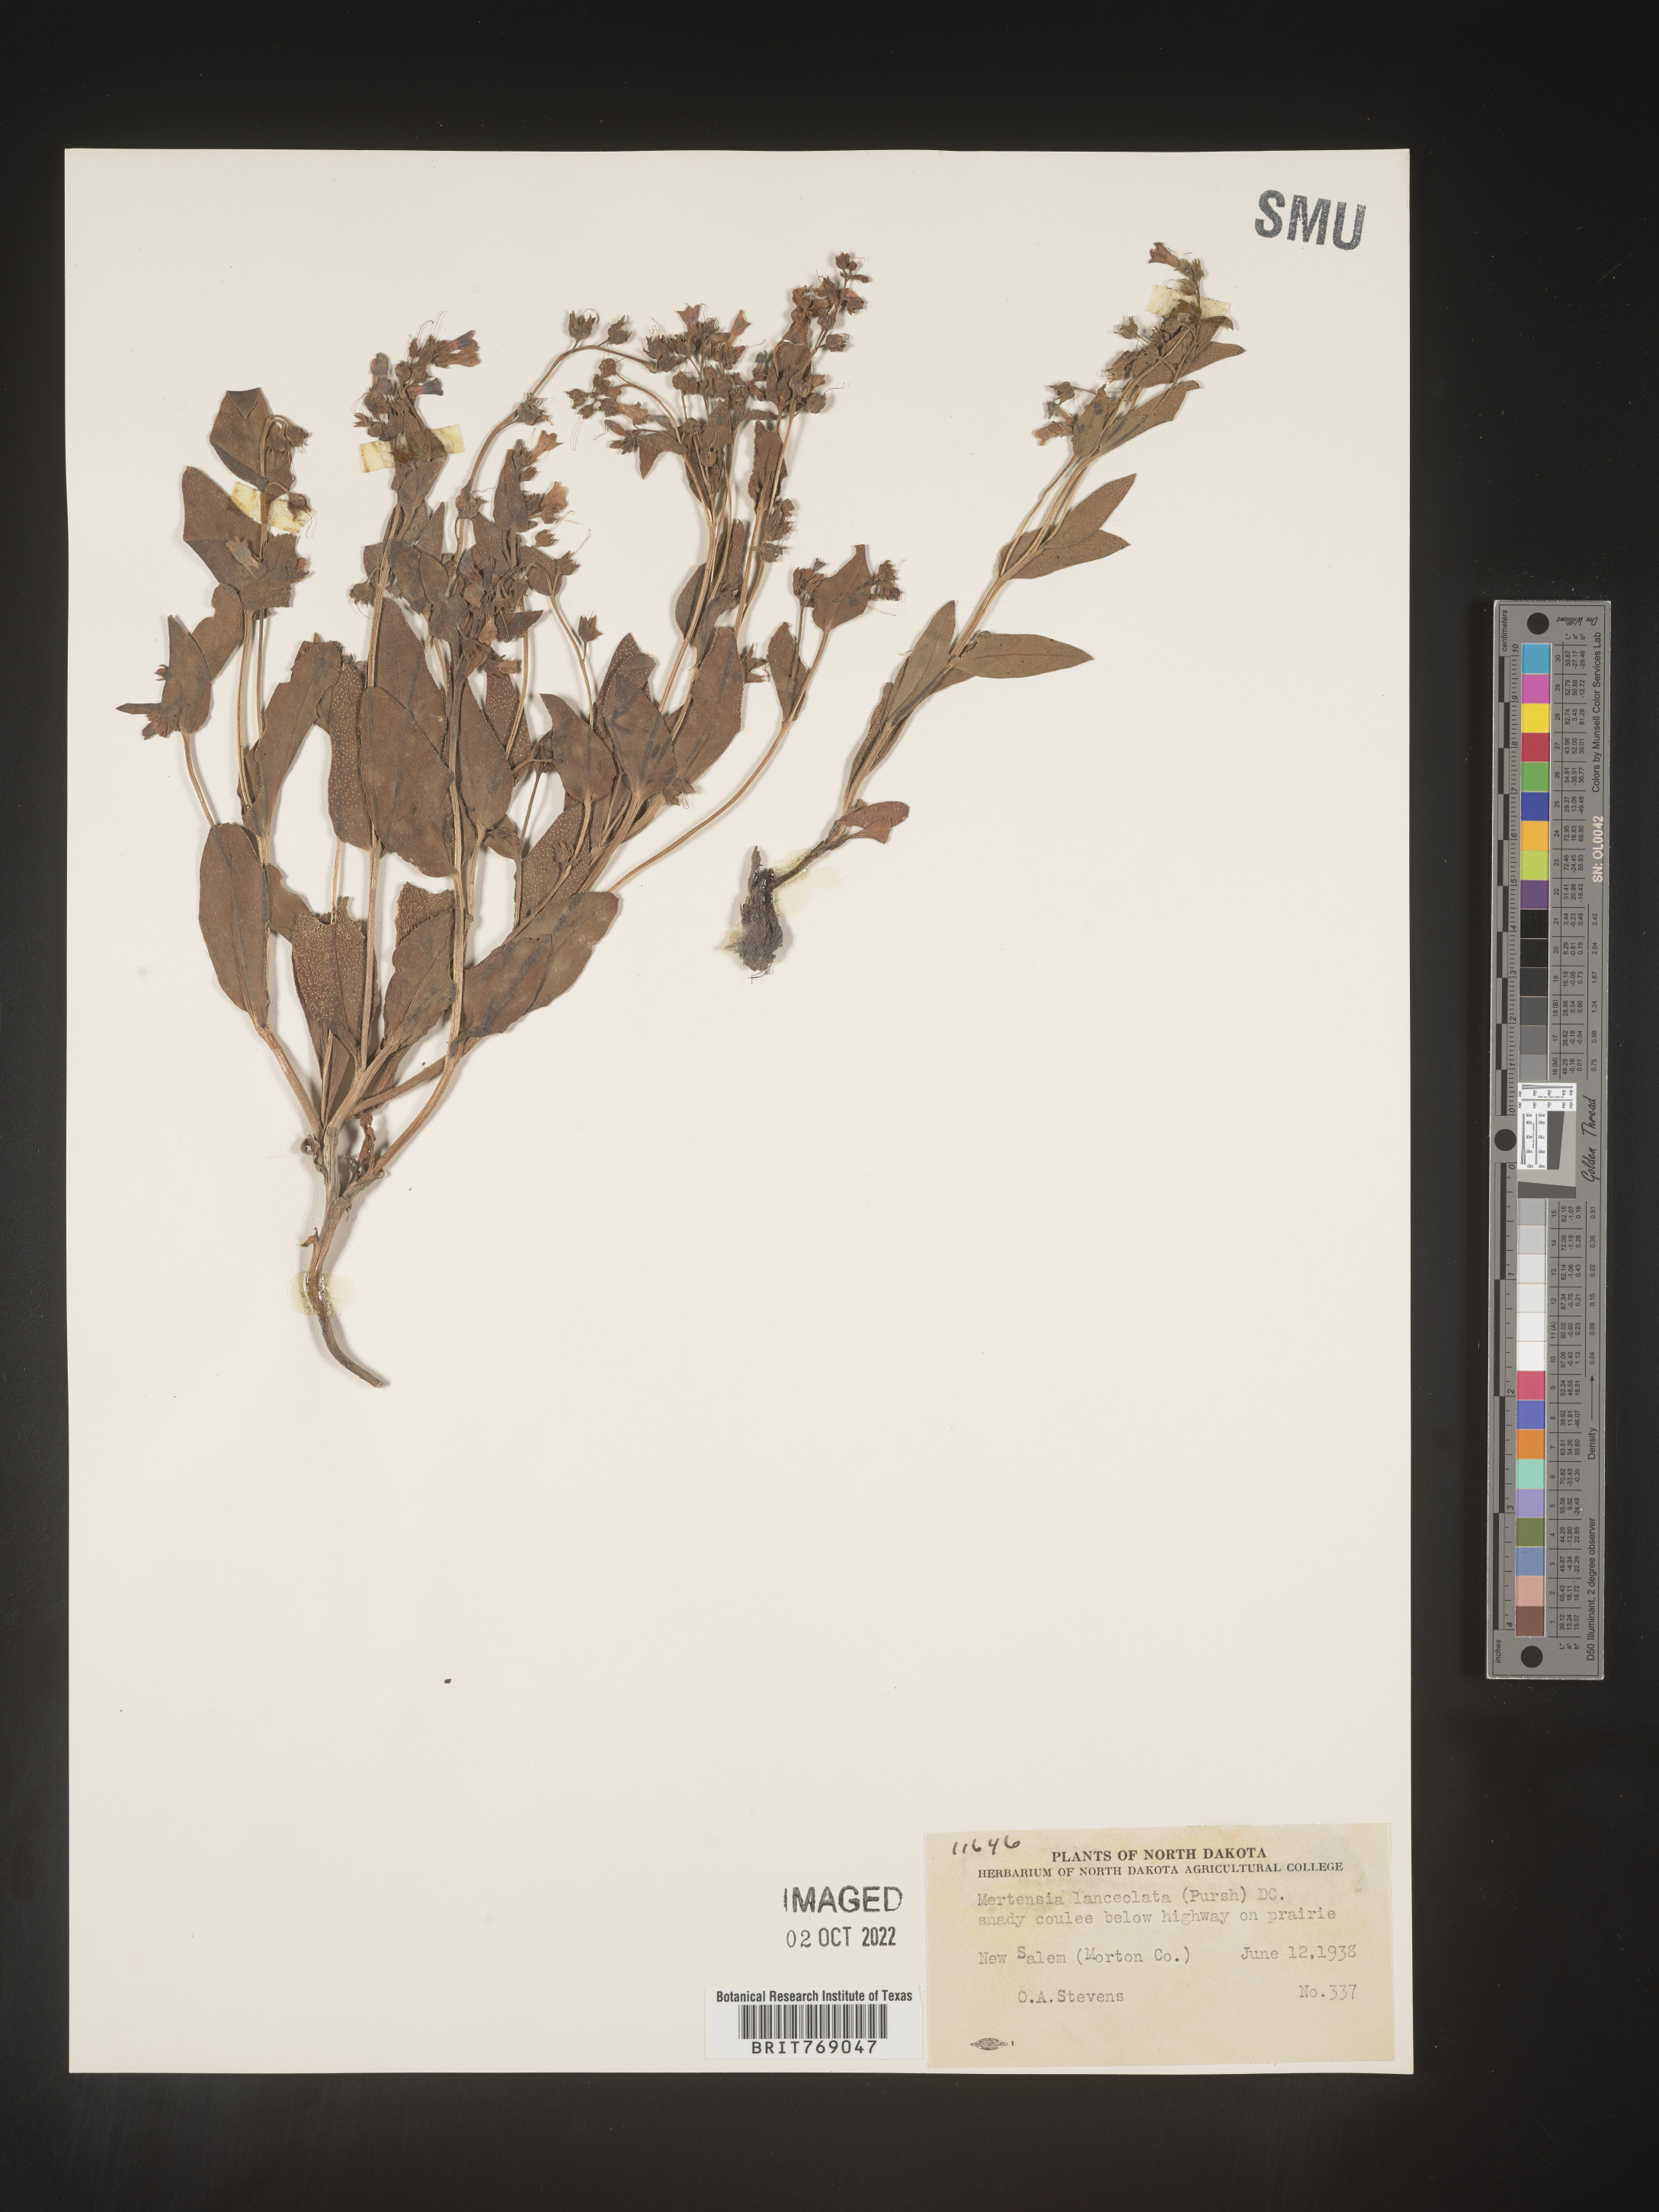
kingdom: Plantae
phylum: Tracheophyta
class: Magnoliopsida
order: Boraginales
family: Boraginaceae
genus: Mertensia
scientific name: Mertensia
